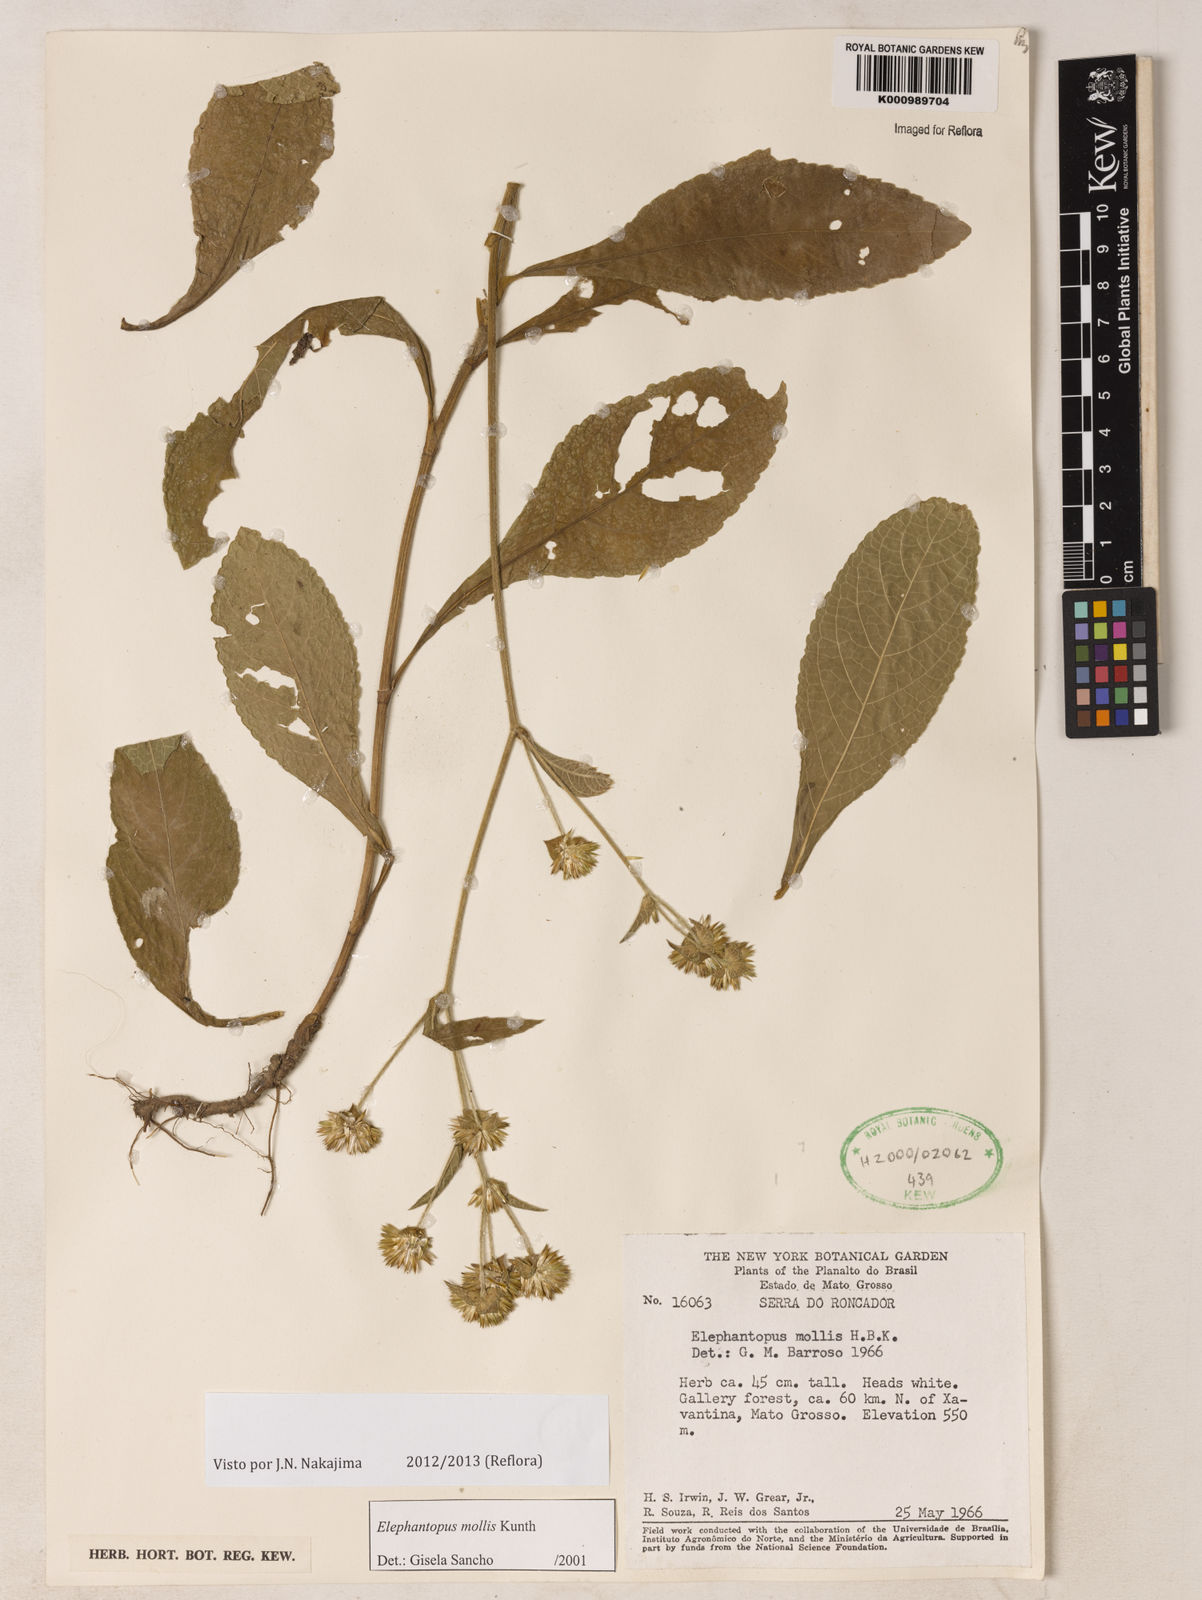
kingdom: Plantae
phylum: Tracheophyta
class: Magnoliopsida
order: Asterales
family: Asteraceae
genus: Elephantopus
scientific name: Elephantopus mollis
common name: Soft elephantsfoot
